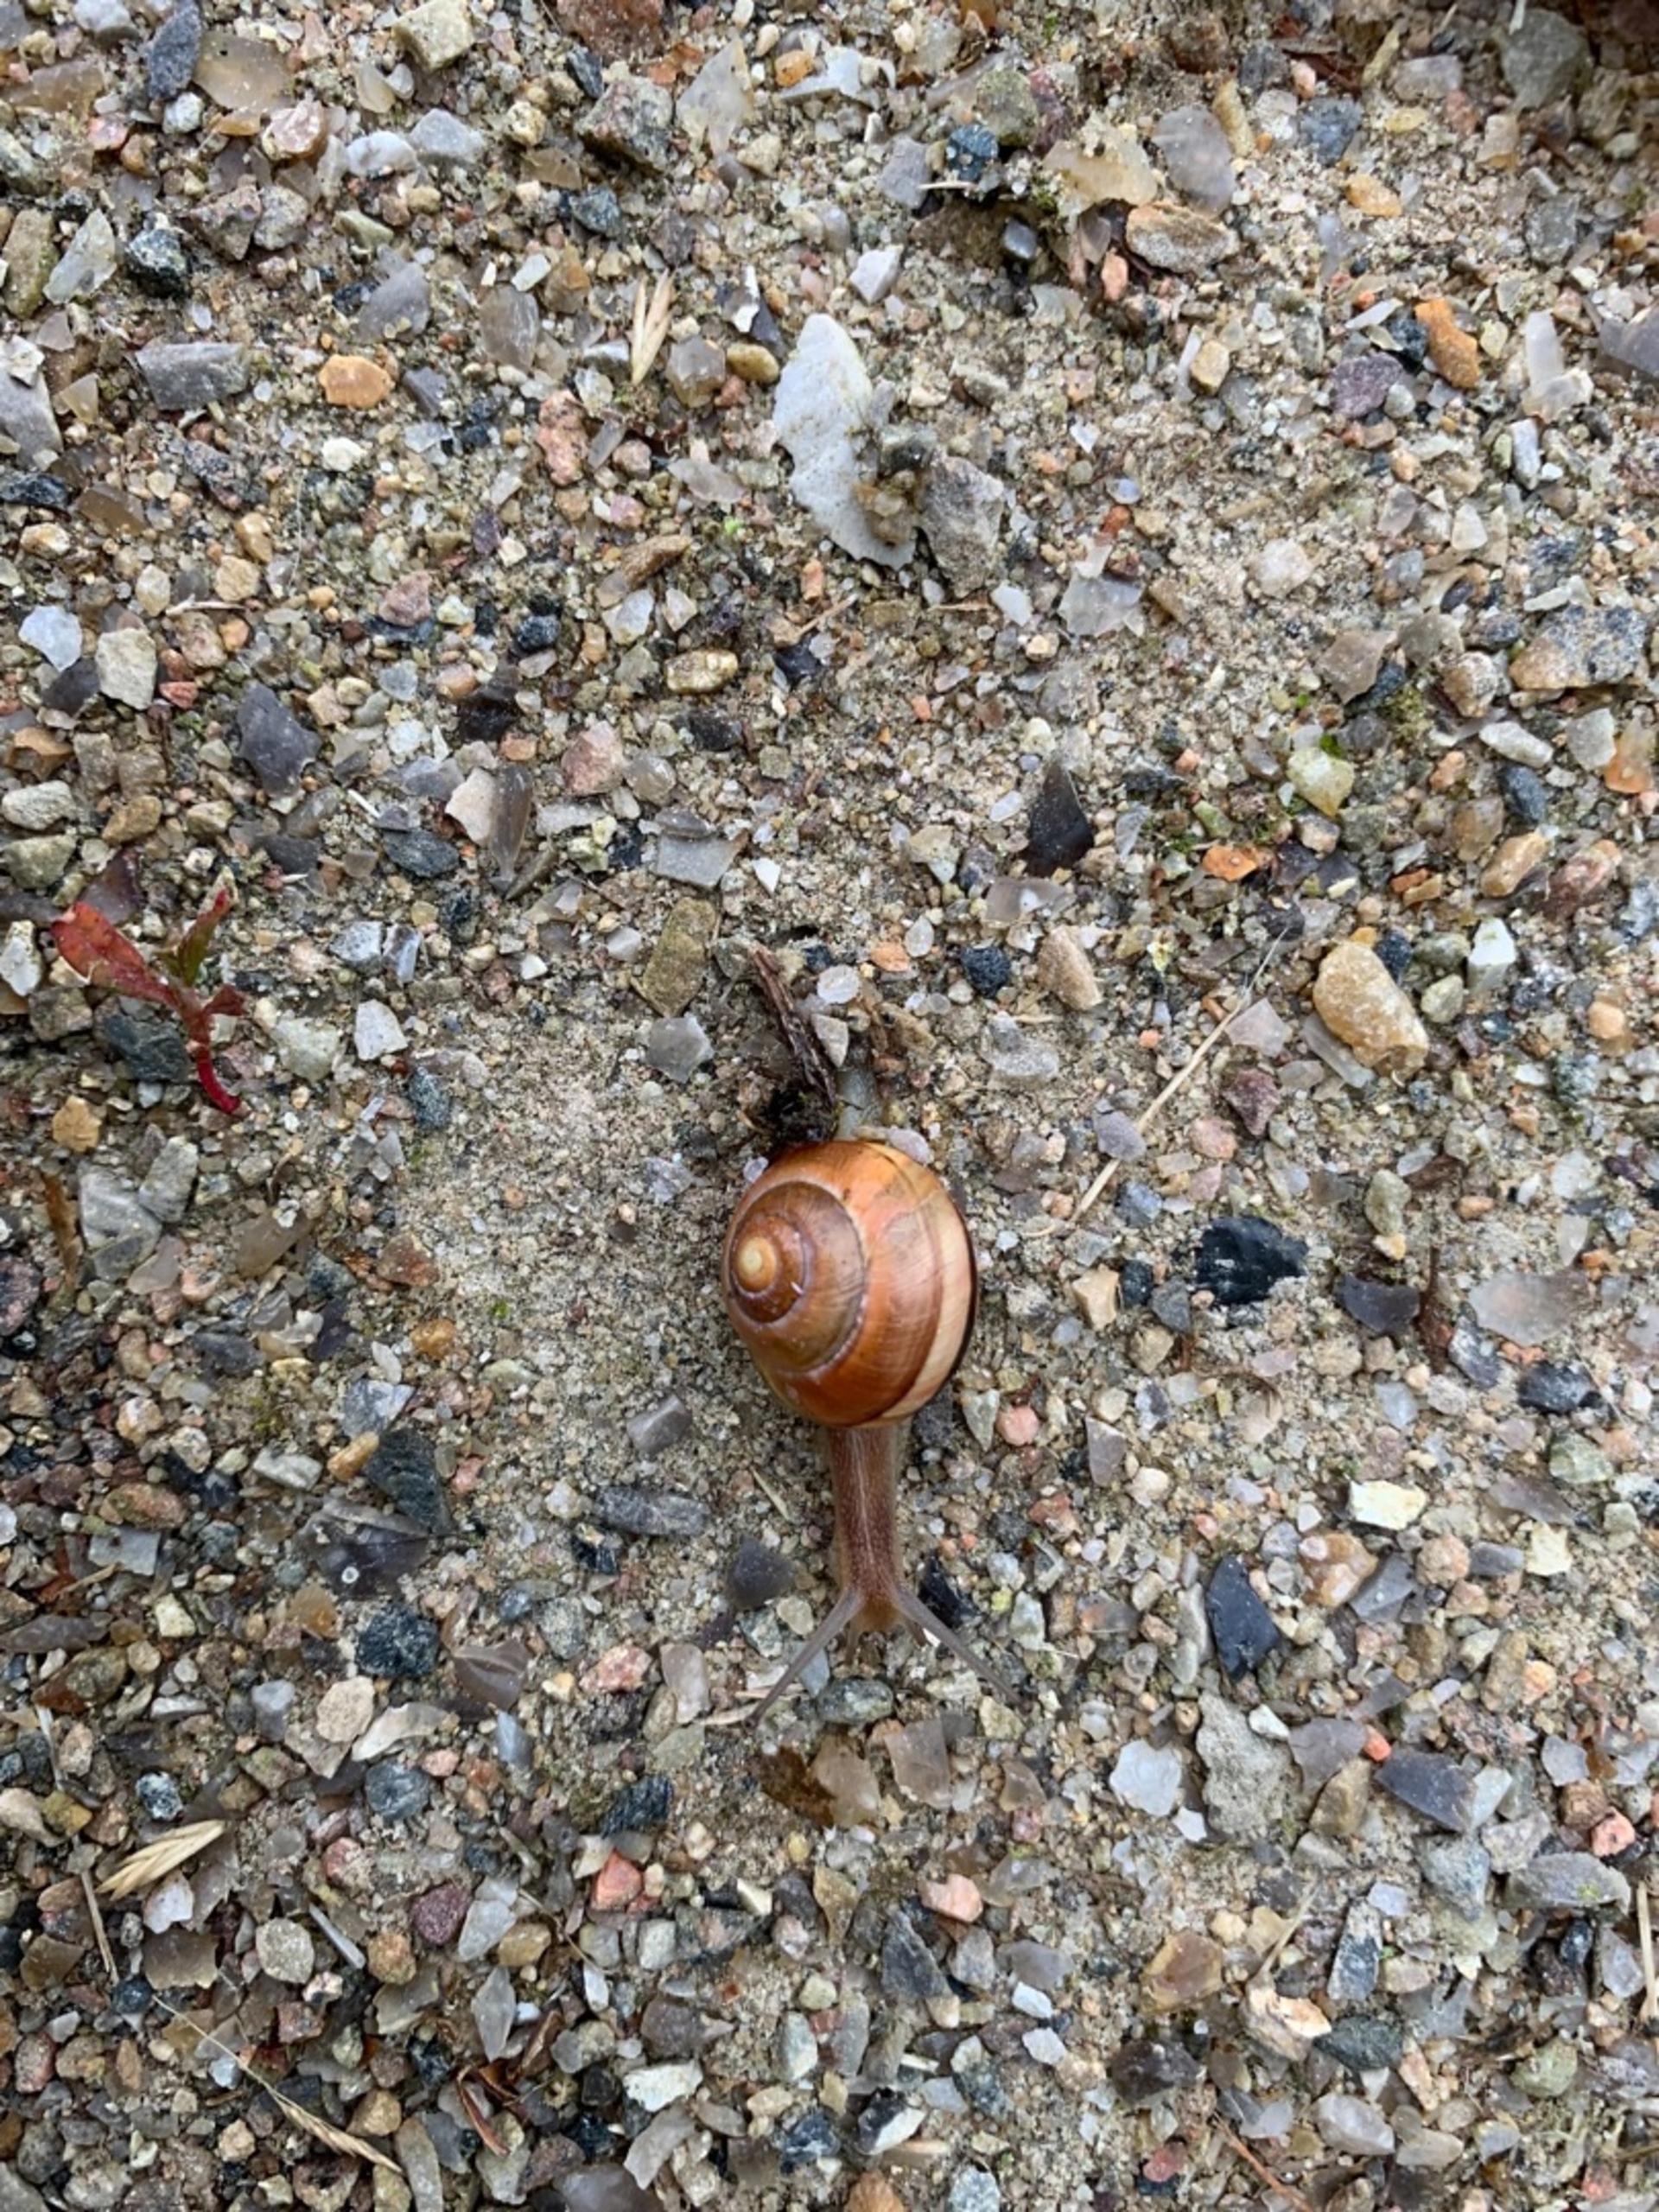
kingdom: Animalia
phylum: Mollusca
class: Gastropoda
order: Stylommatophora
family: Helicidae
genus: Cepaea
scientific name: Cepaea
